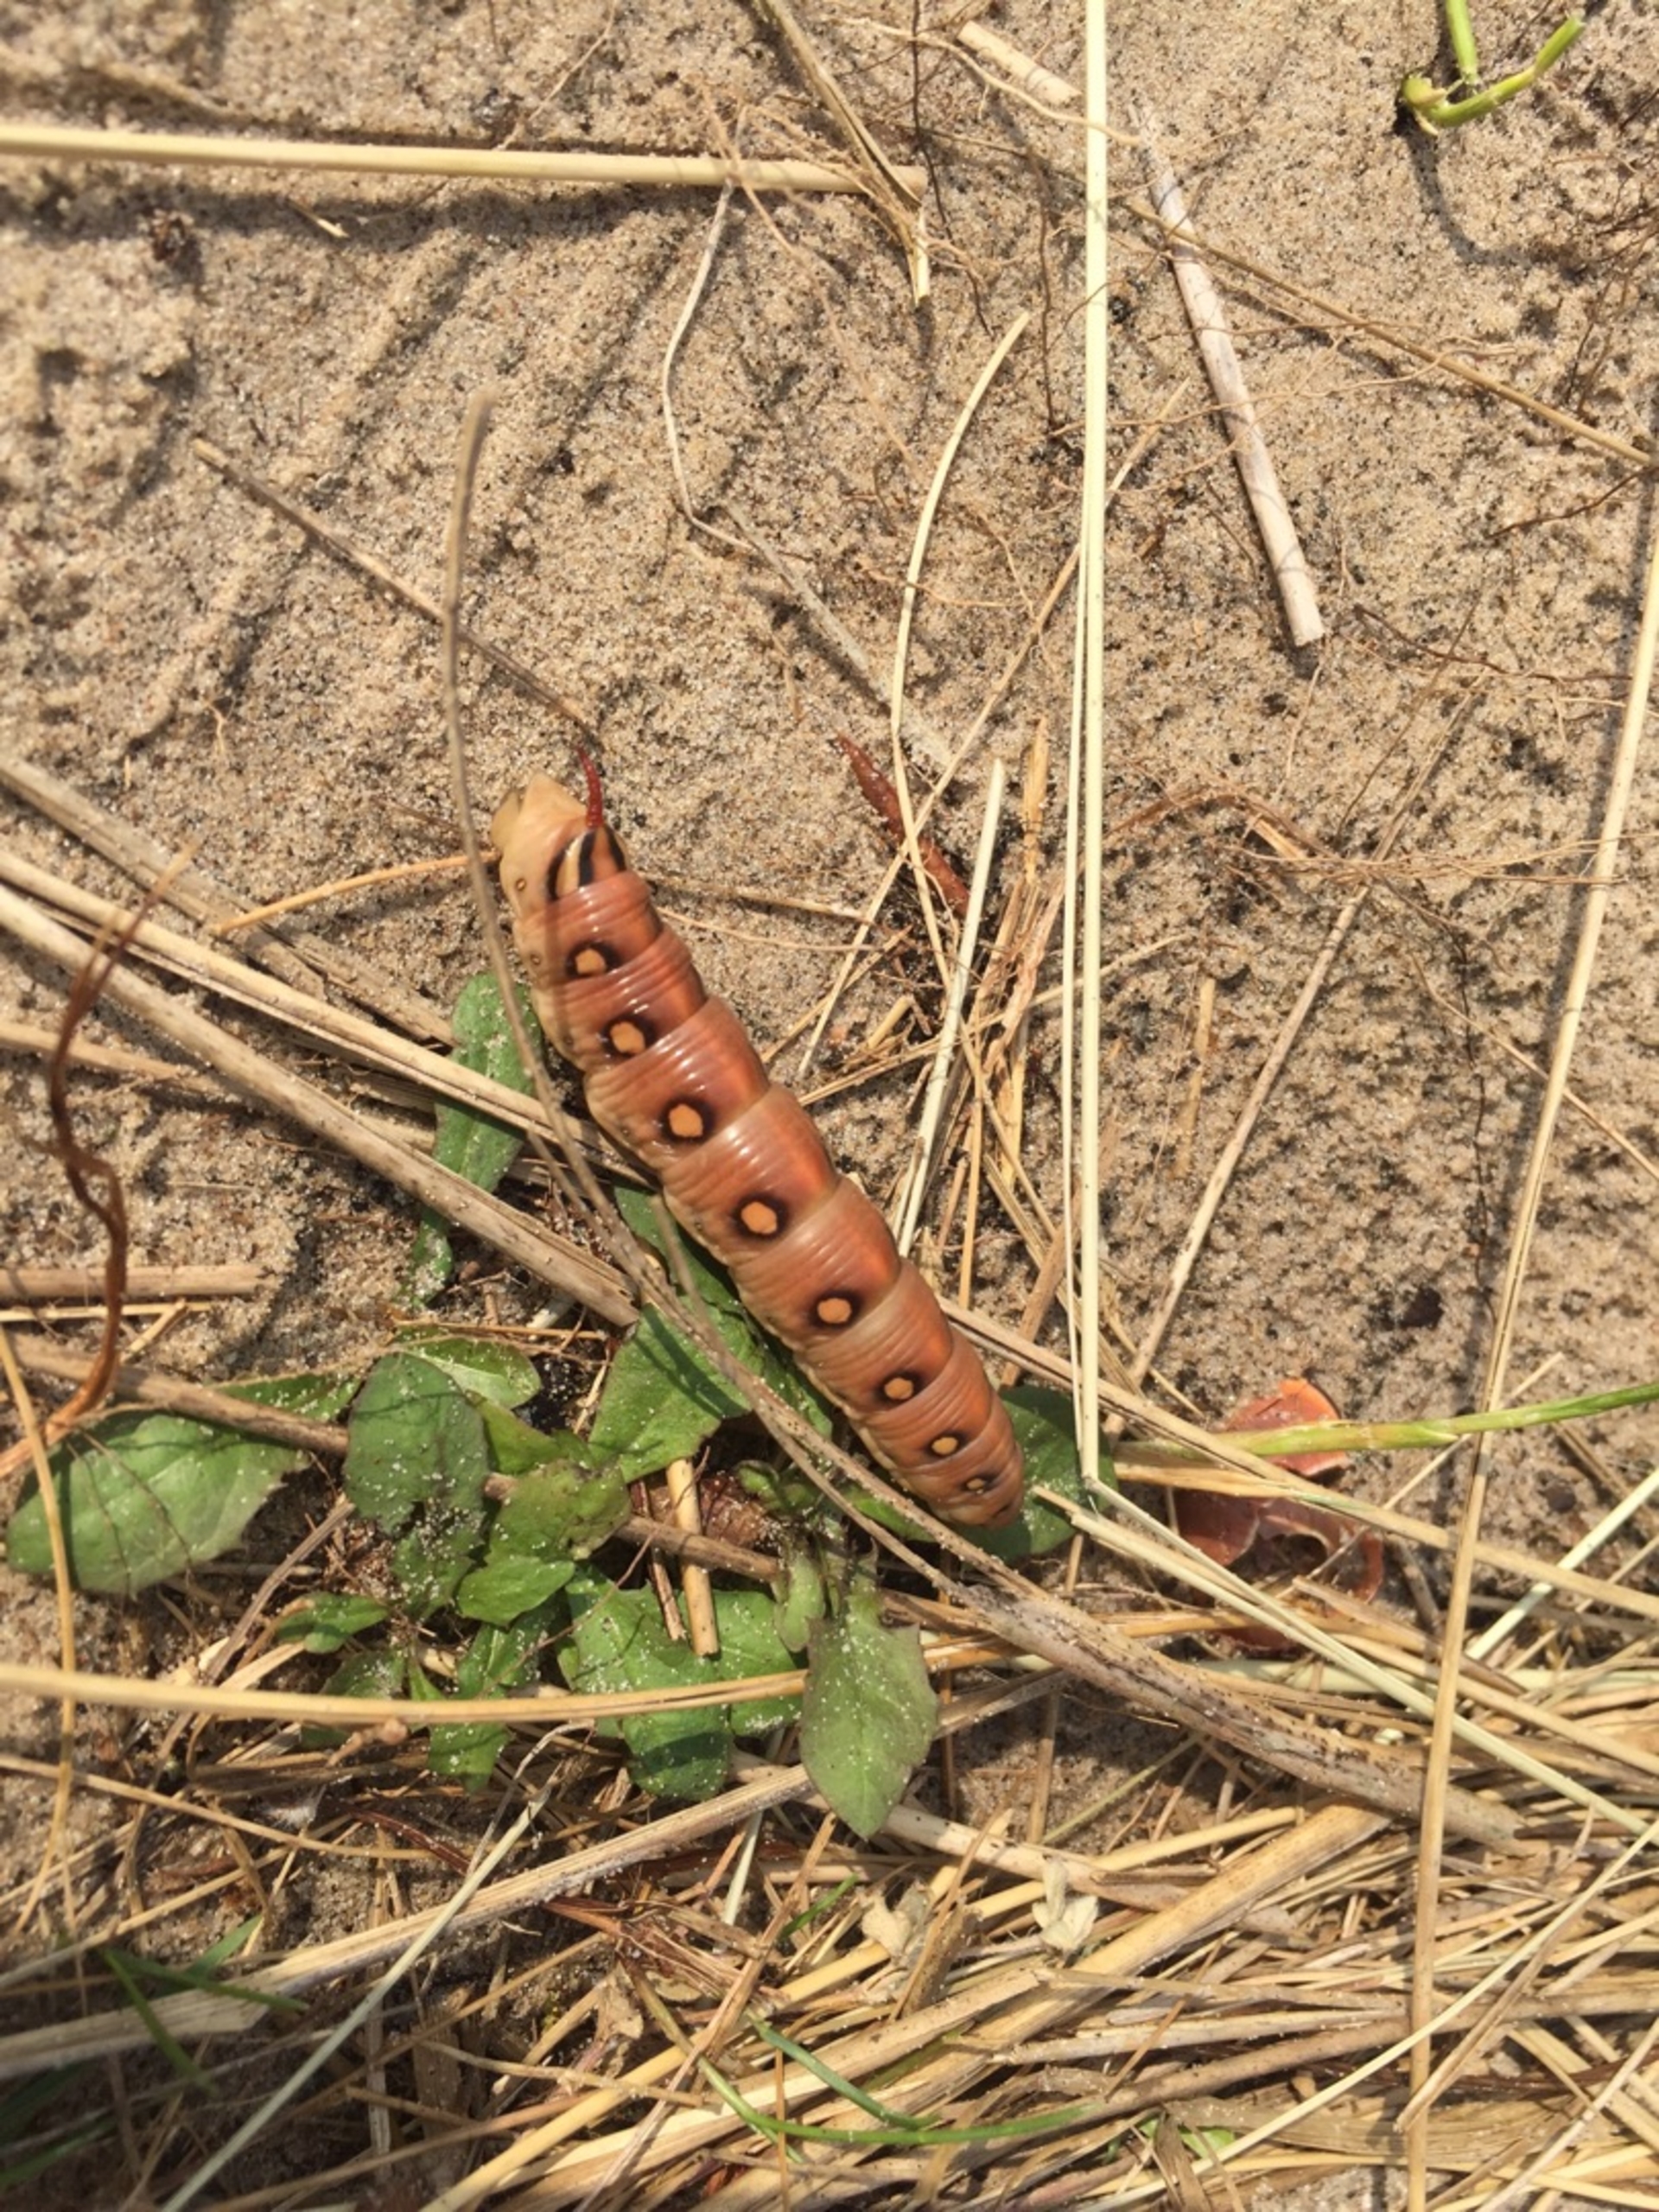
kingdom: Animalia
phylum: Arthropoda
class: Insecta
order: Lepidoptera
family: Sphingidae
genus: Hyles
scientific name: Hyles gallii
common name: Snerresværmer
